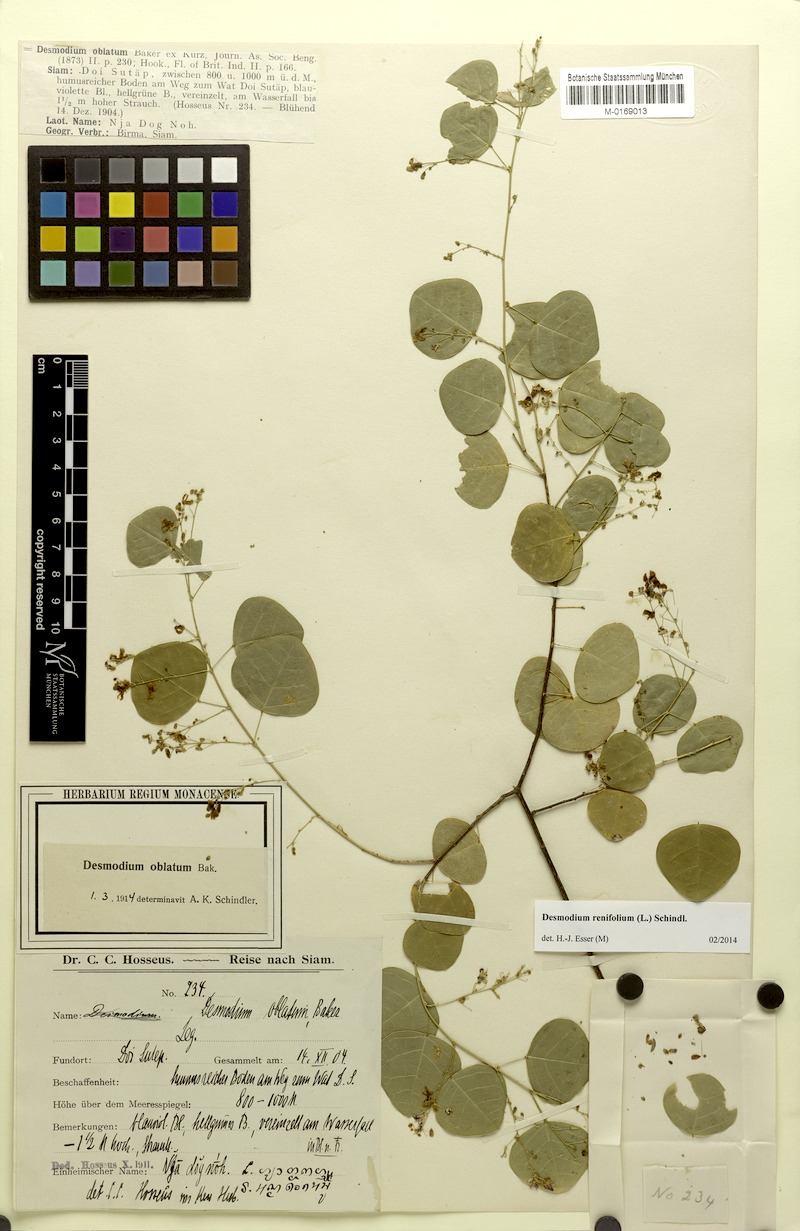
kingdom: Plantae
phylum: Tracheophyta
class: Magnoliopsida
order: Fabales
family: Fabaceae
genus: Huangtcia
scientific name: Huangtcia renifolia
